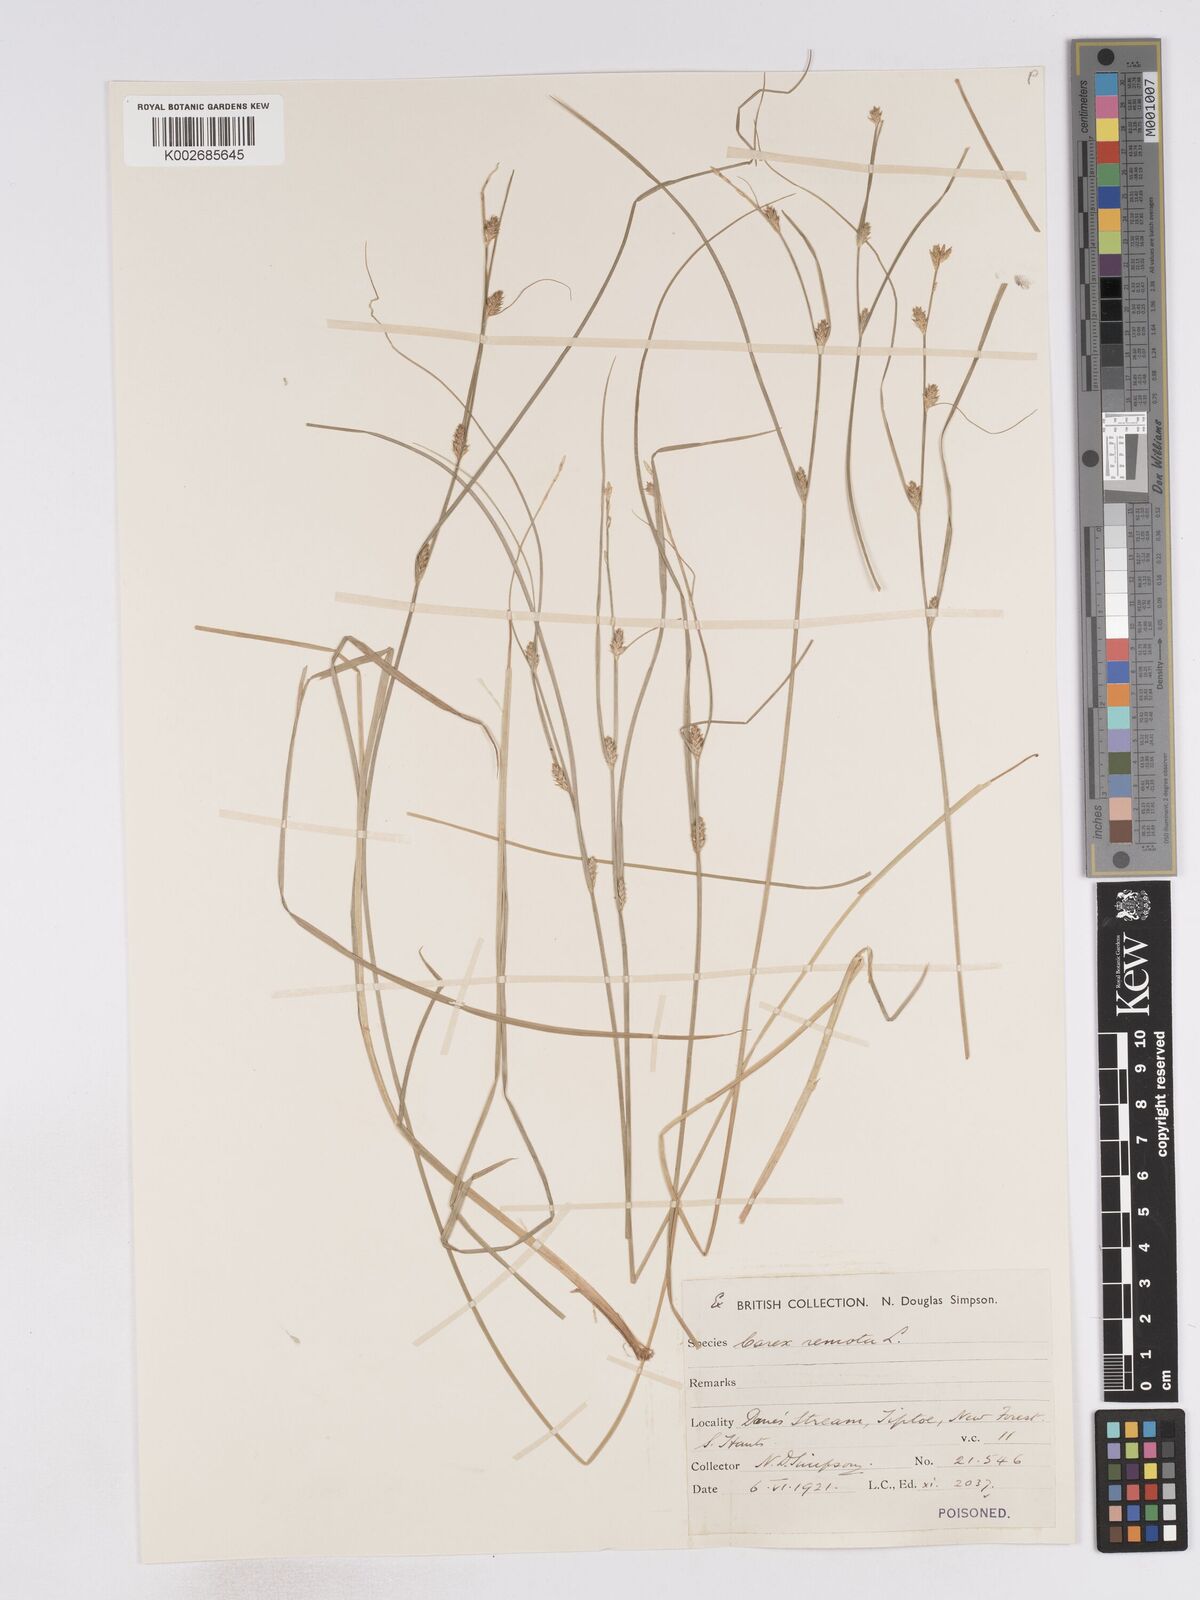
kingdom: Plantae
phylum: Tracheophyta
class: Liliopsida
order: Poales
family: Cyperaceae
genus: Carex
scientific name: Carex remota
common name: Remote sedge
